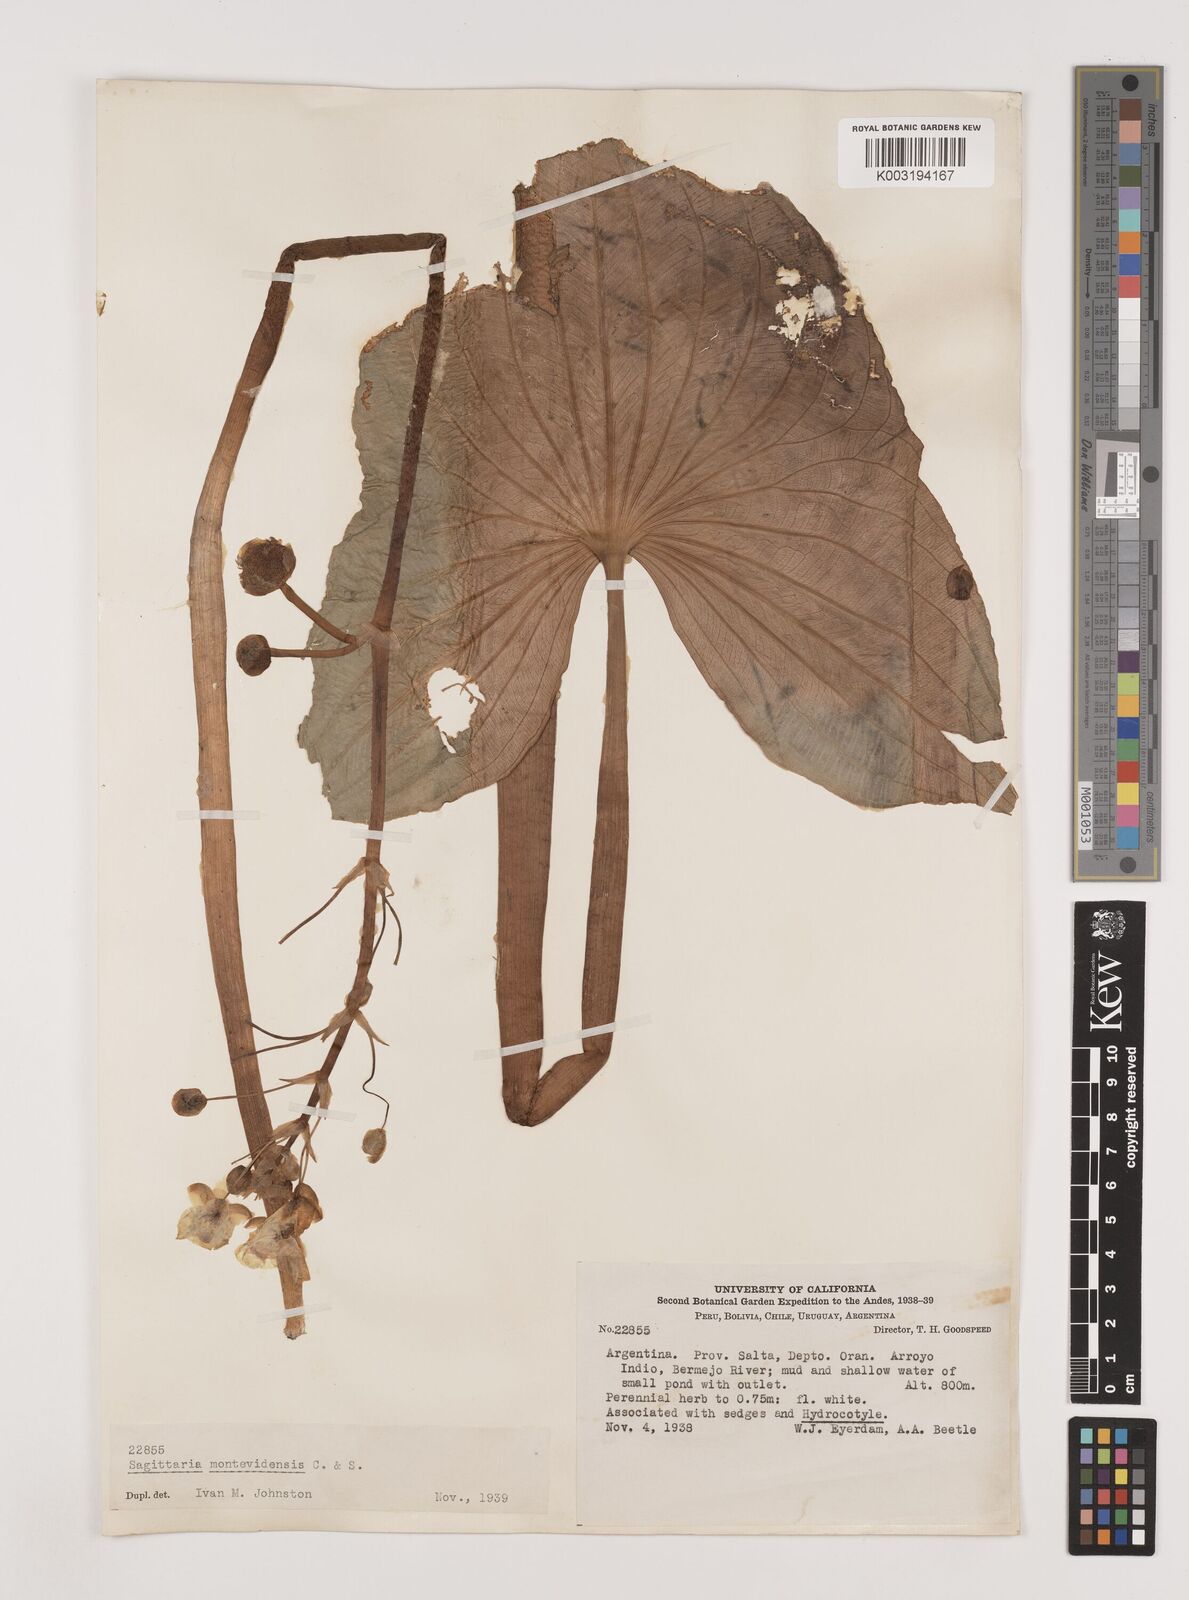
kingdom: Plantae
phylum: Tracheophyta
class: Liliopsida
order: Alismatales
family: Alismataceae
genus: Sagittaria
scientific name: Sagittaria montevidensis
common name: Giant arrowhead
